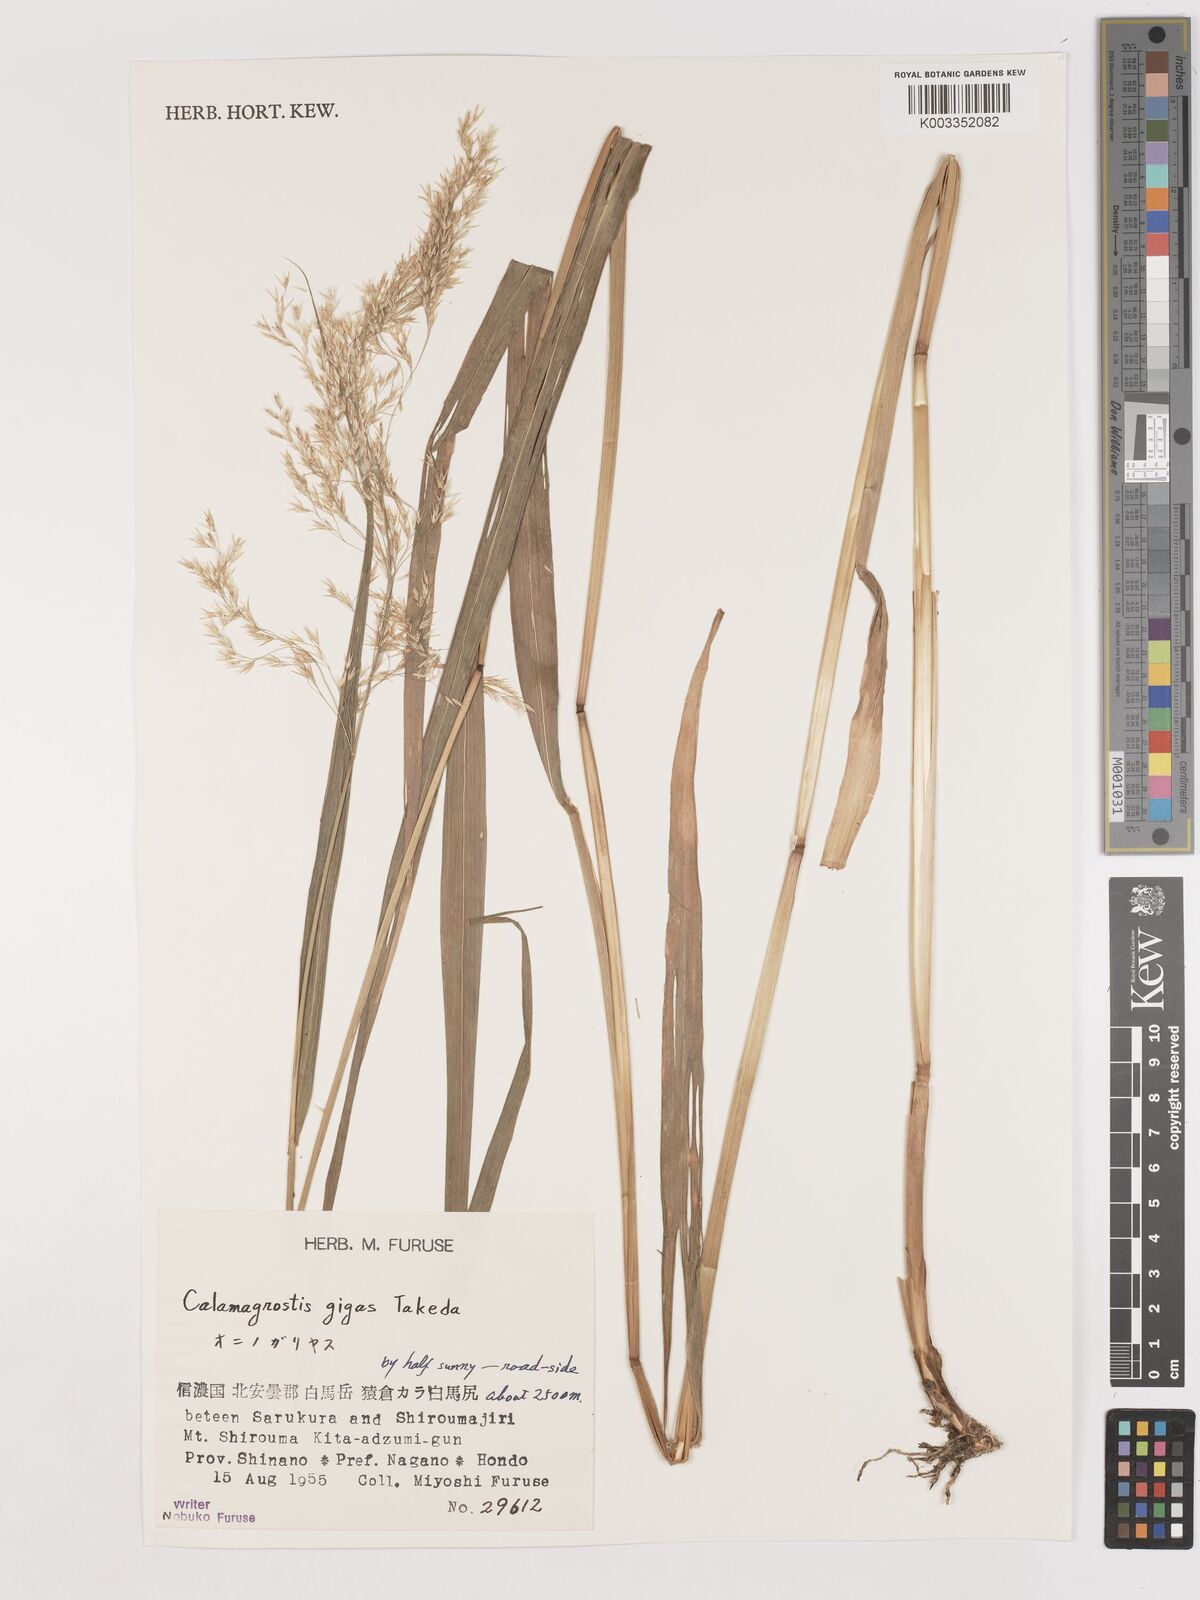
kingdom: Plantae
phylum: Tracheophyta
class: Liliopsida
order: Poales
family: Poaceae
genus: Calamagrostis
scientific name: Calamagrostis gigas
